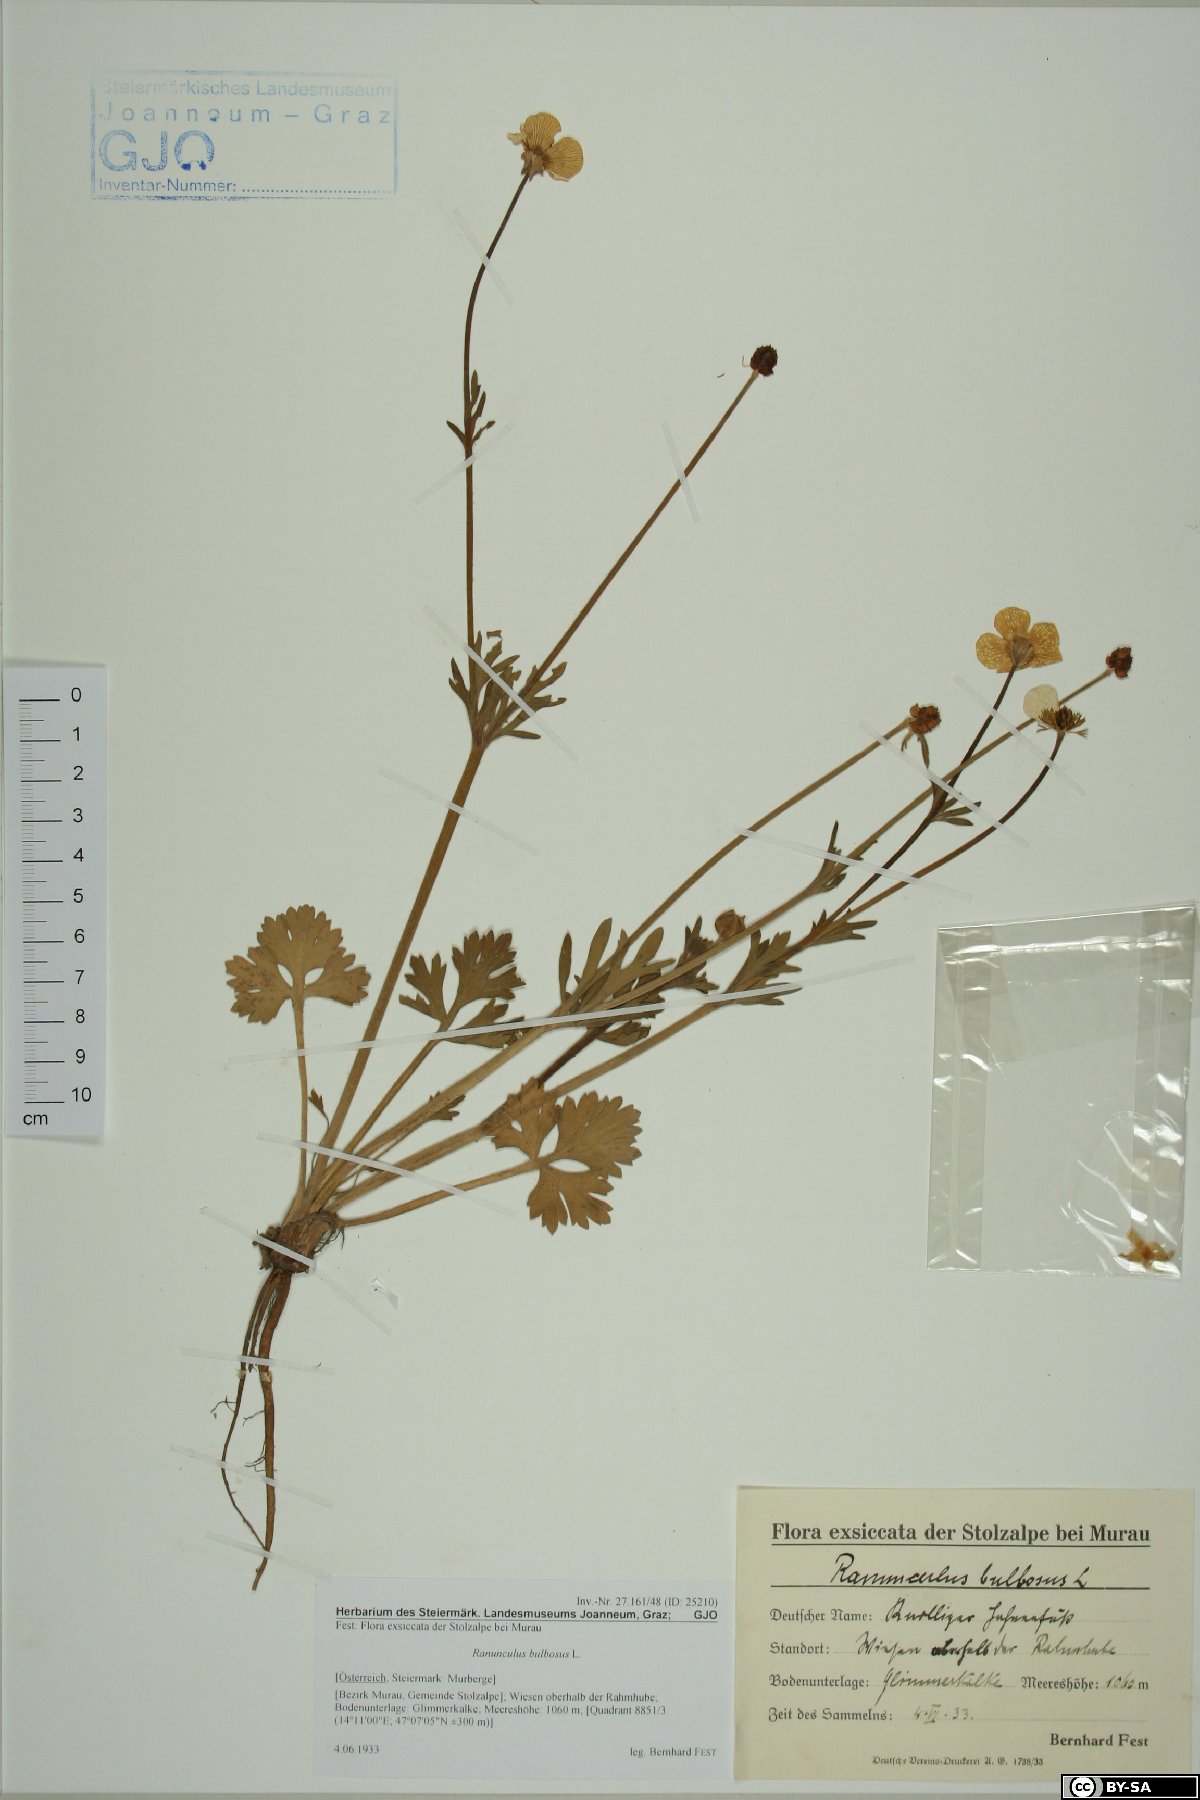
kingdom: Plantae
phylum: Tracheophyta
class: Magnoliopsida
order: Ranunculales
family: Ranunculaceae
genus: Ranunculus
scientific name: Ranunculus bulbosus
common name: Bulbous buttercup
